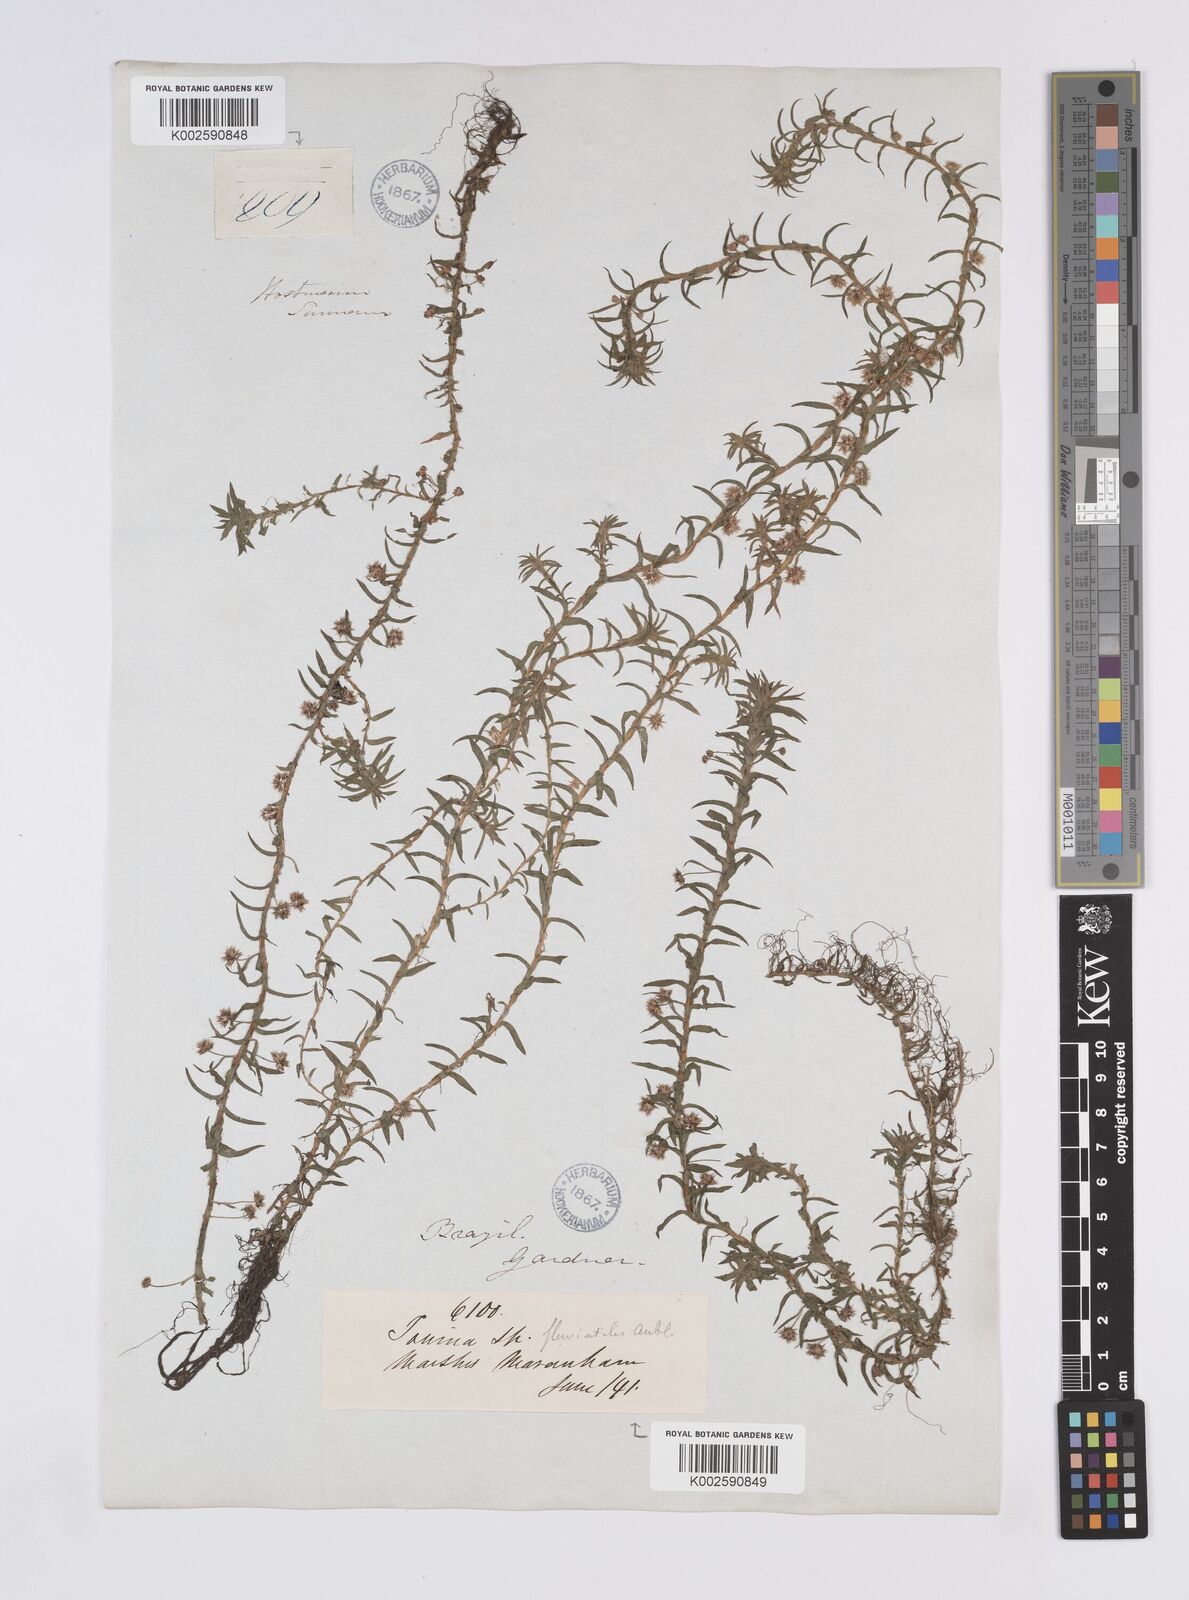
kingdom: Plantae
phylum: Tracheophyta
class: Liliopsida
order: Poales
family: Eriocaulaceae
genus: Paepalanthus
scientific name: Paepalanthus fluviatilis
